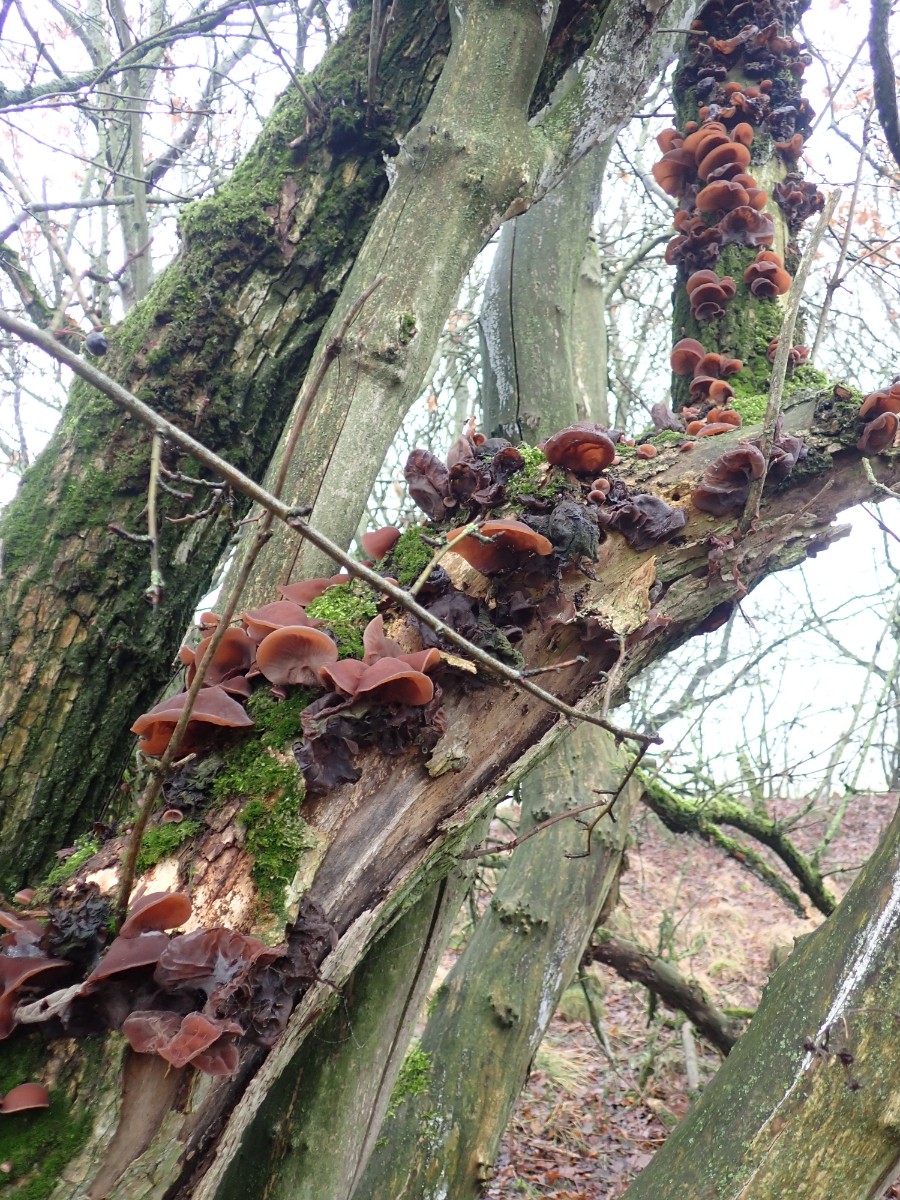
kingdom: Fungi
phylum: Basidiomycota
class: Agaricomycetes
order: Auriculariales
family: Auriculariaceae
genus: Auricularia
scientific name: Auricularia auricula-judae
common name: almindelig judasøre
